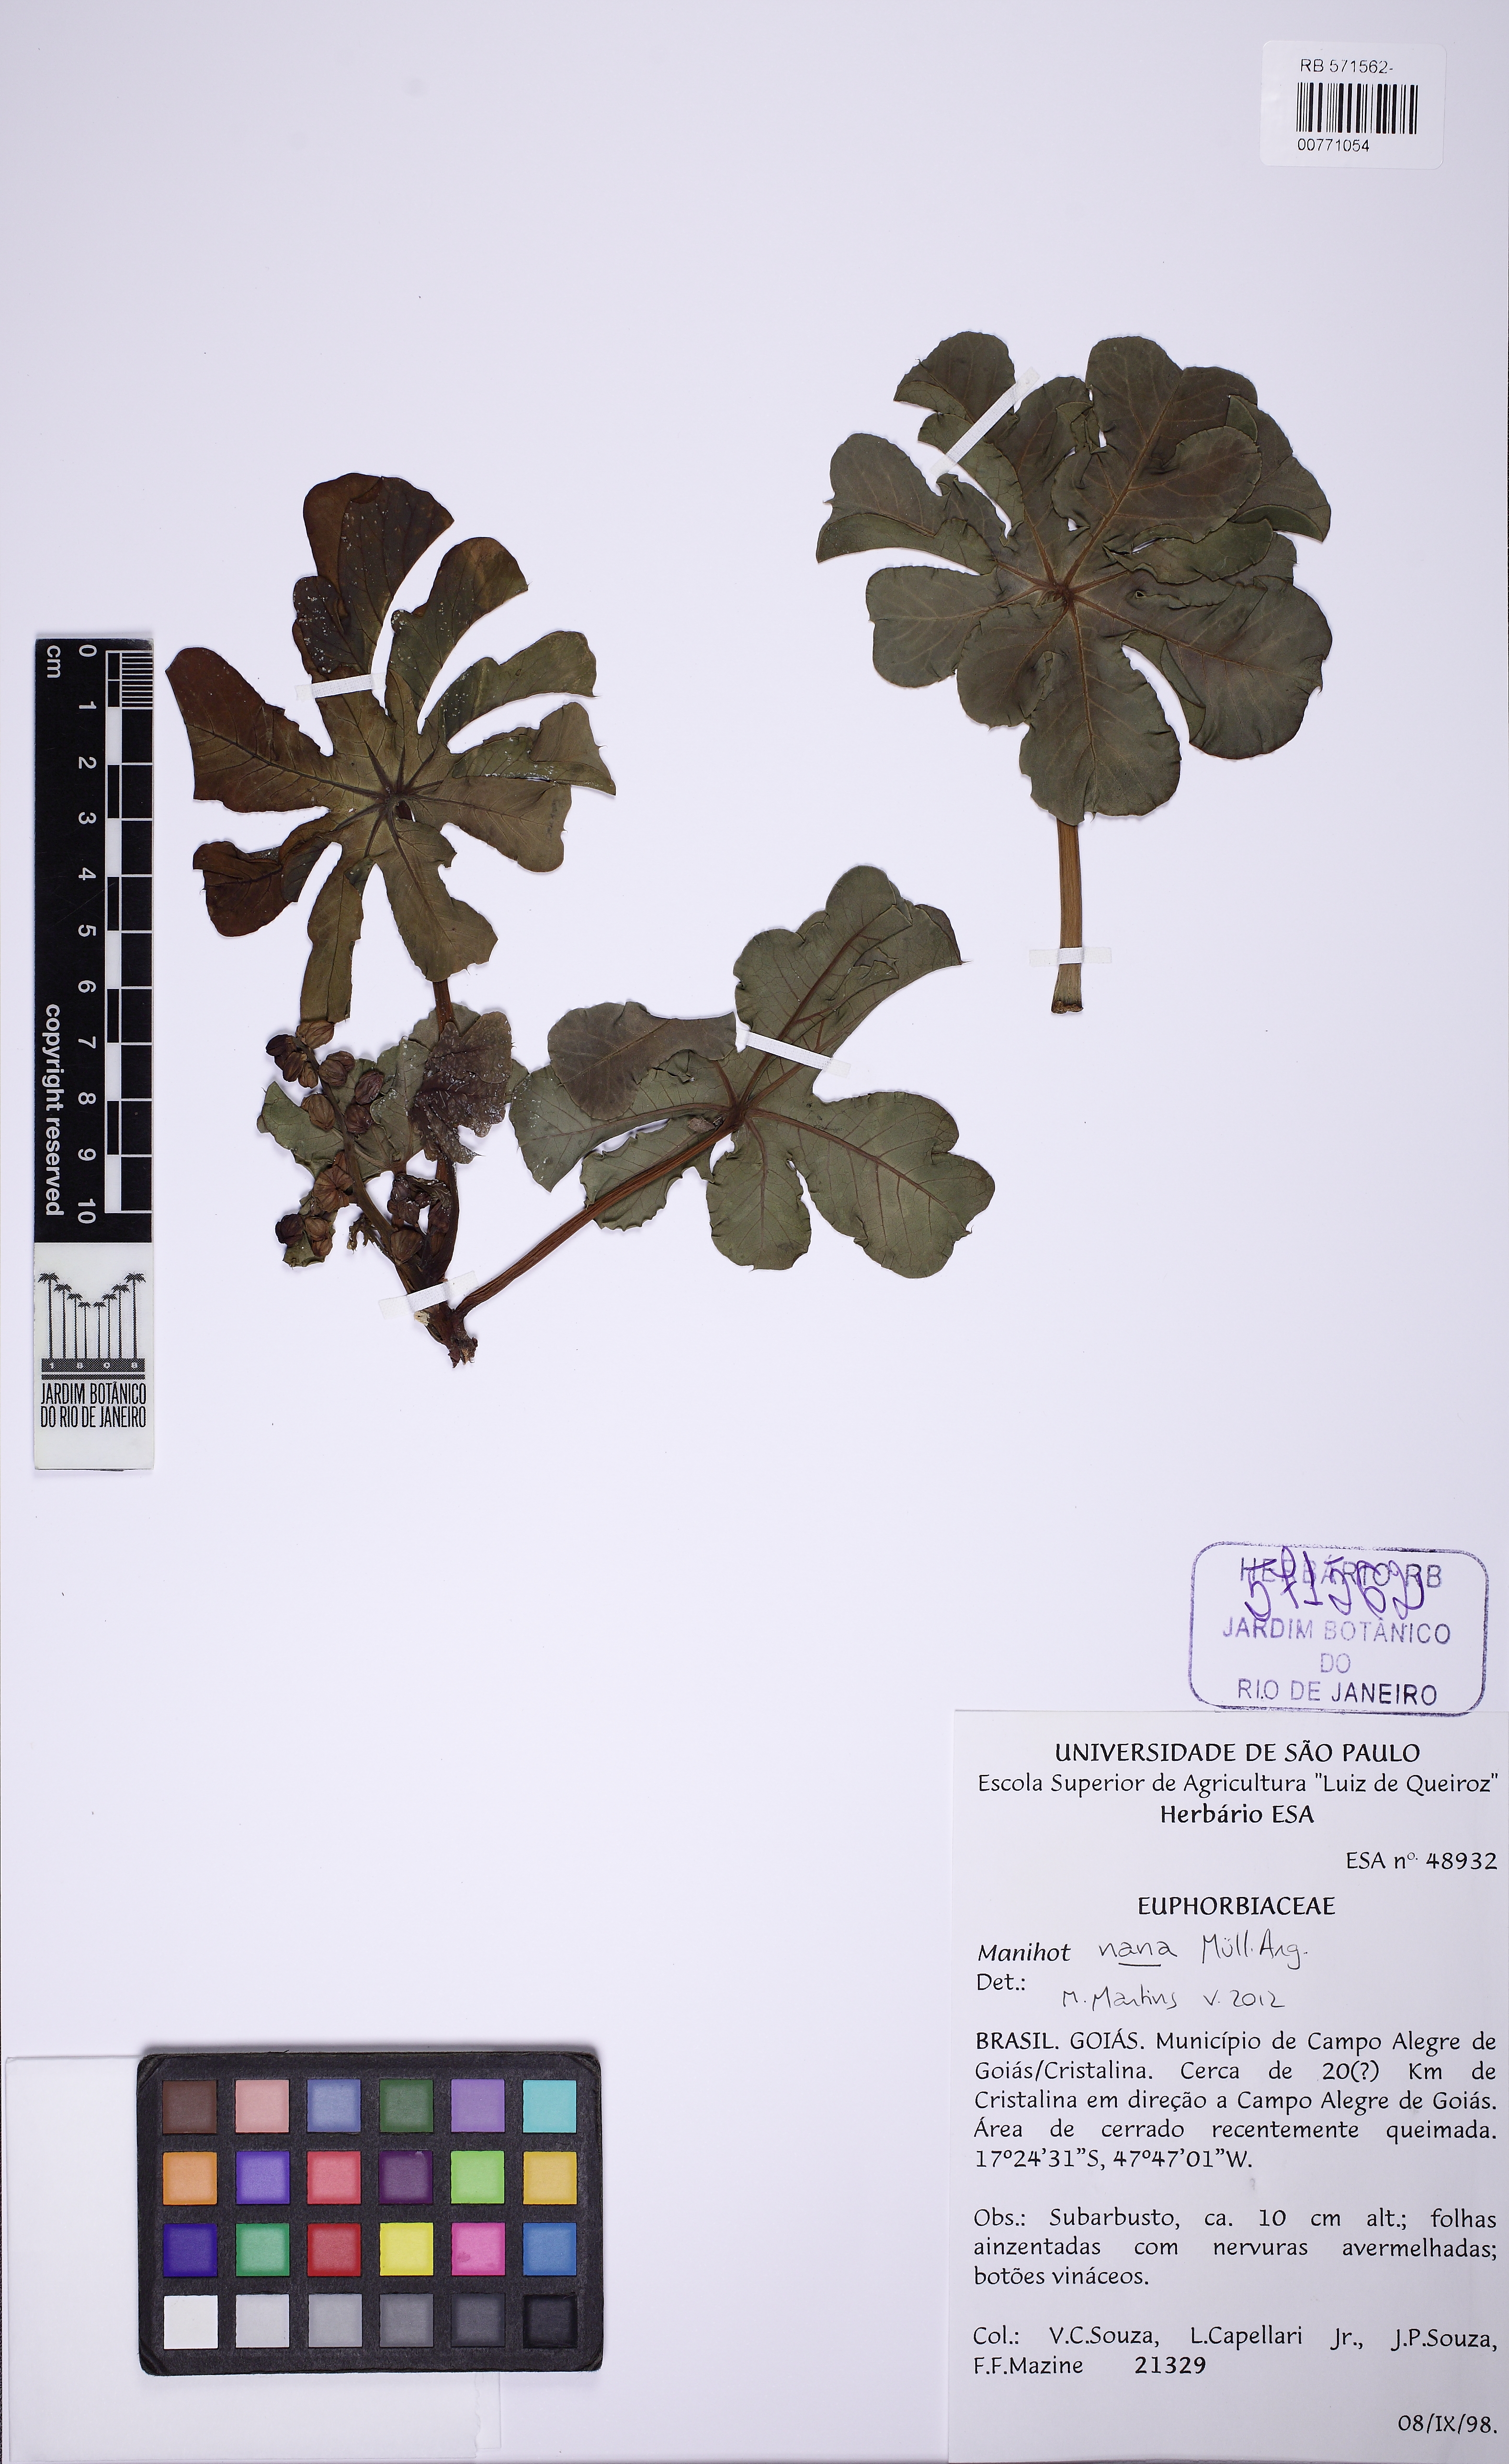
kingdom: Plantae
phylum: Tracheophyta
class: Magnoliopsida
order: Malpighiales
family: Euphorbiaceae
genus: Manihot
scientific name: Manihot nana
